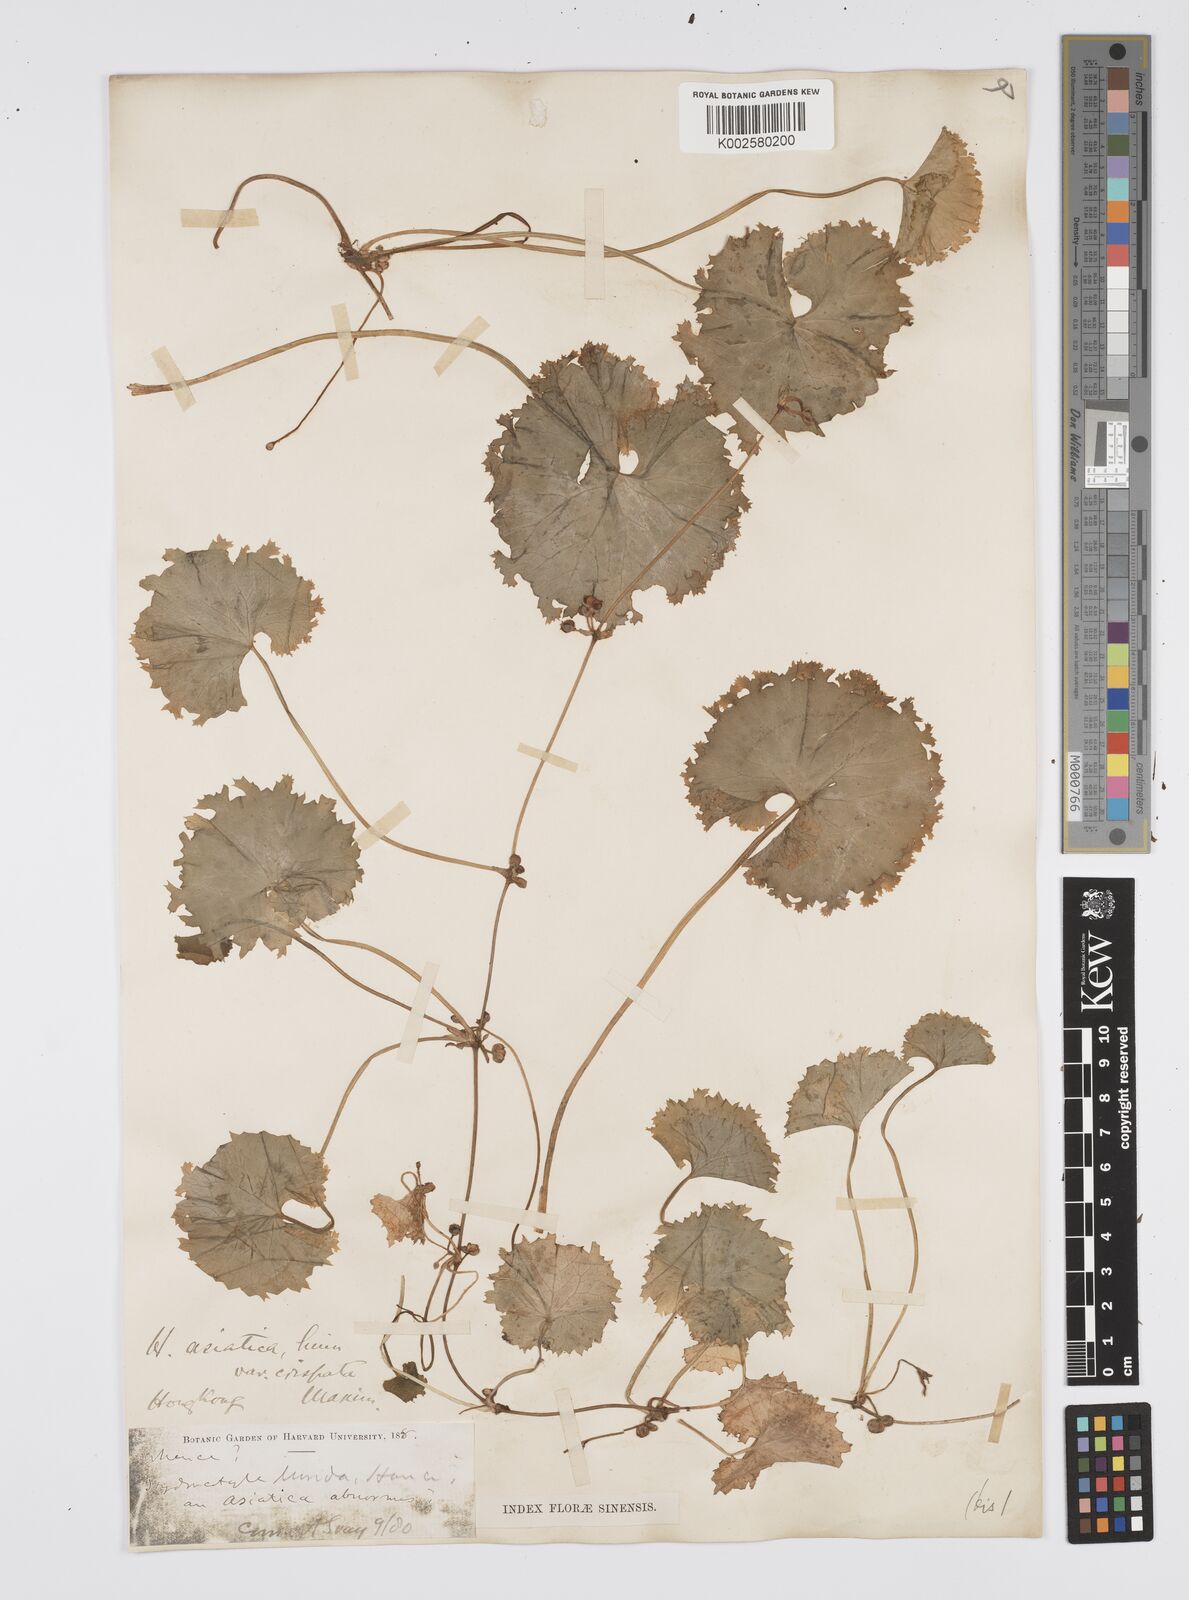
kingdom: Plantae
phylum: Tracheophyta
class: Magnoliopsida
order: Apiales
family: Apiaceae
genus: Centella
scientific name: Centella asiatica
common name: Spadeleaf
